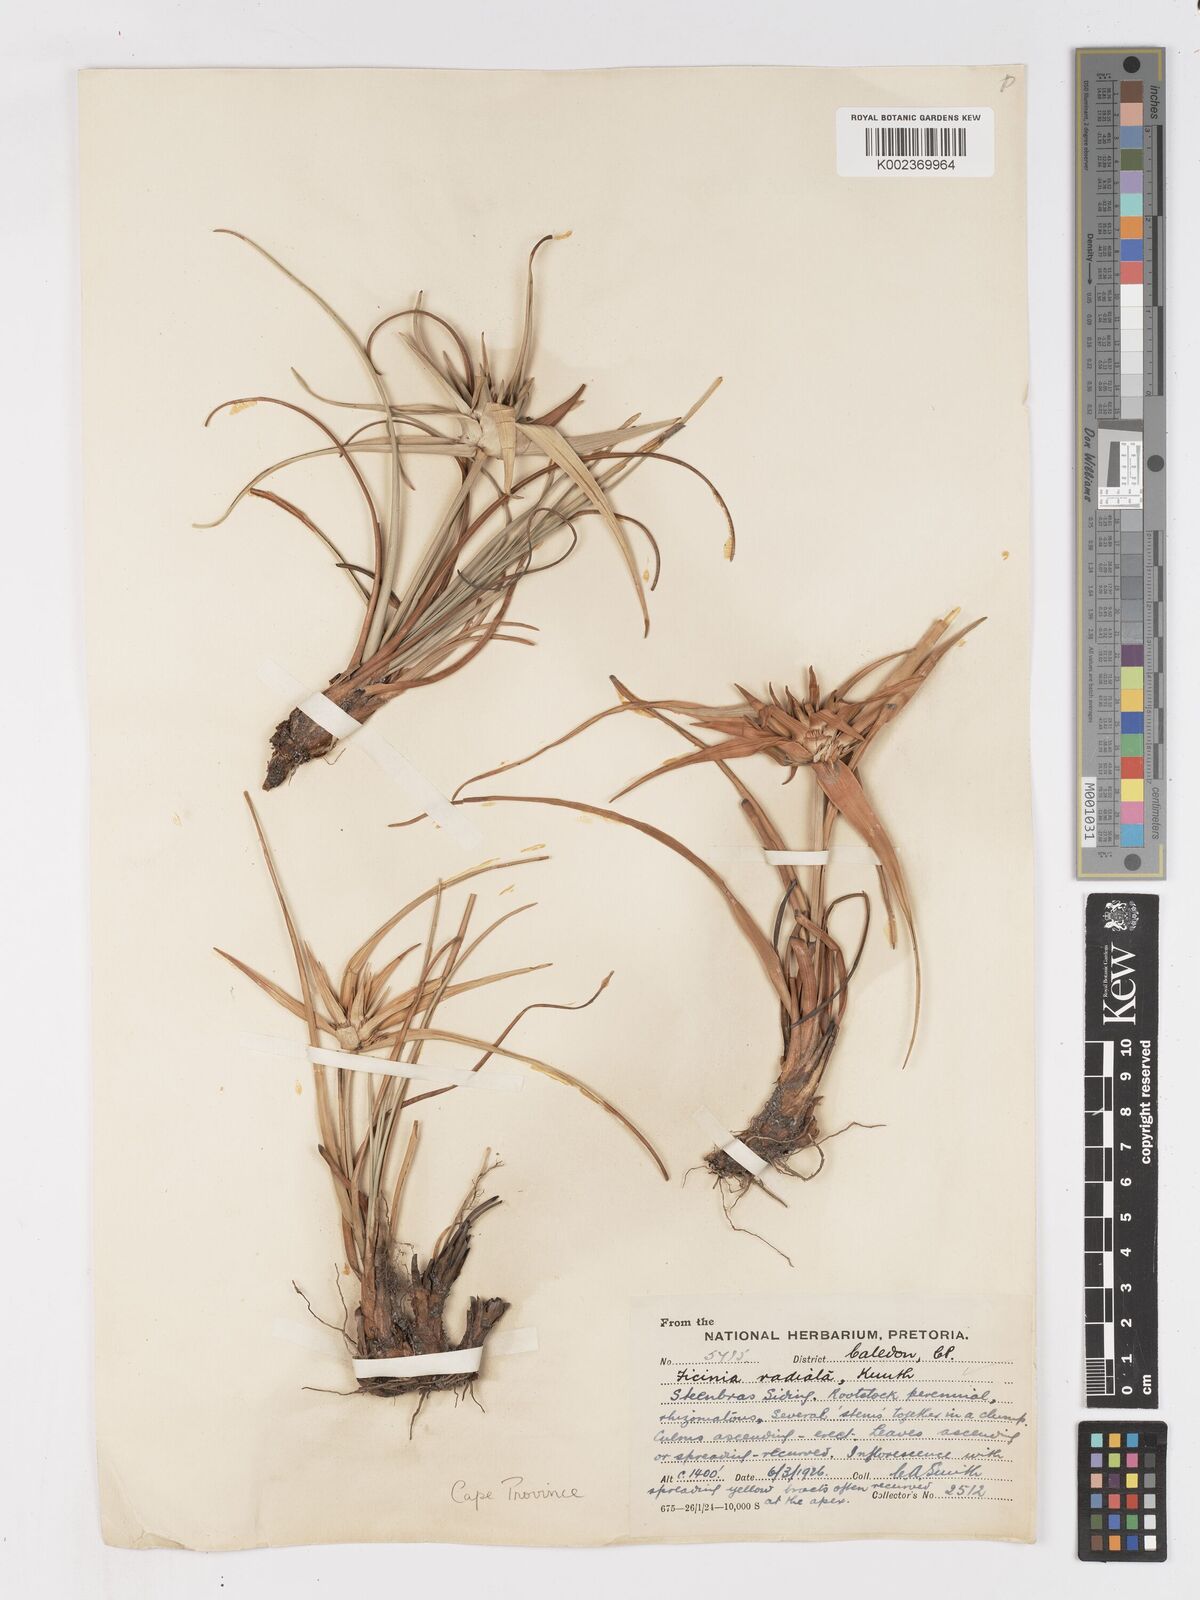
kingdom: Plantae
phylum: Tracheophyta
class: Liliopsida
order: Poales
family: Cyperaceae
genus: Ficinia
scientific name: Ficinia radiata
